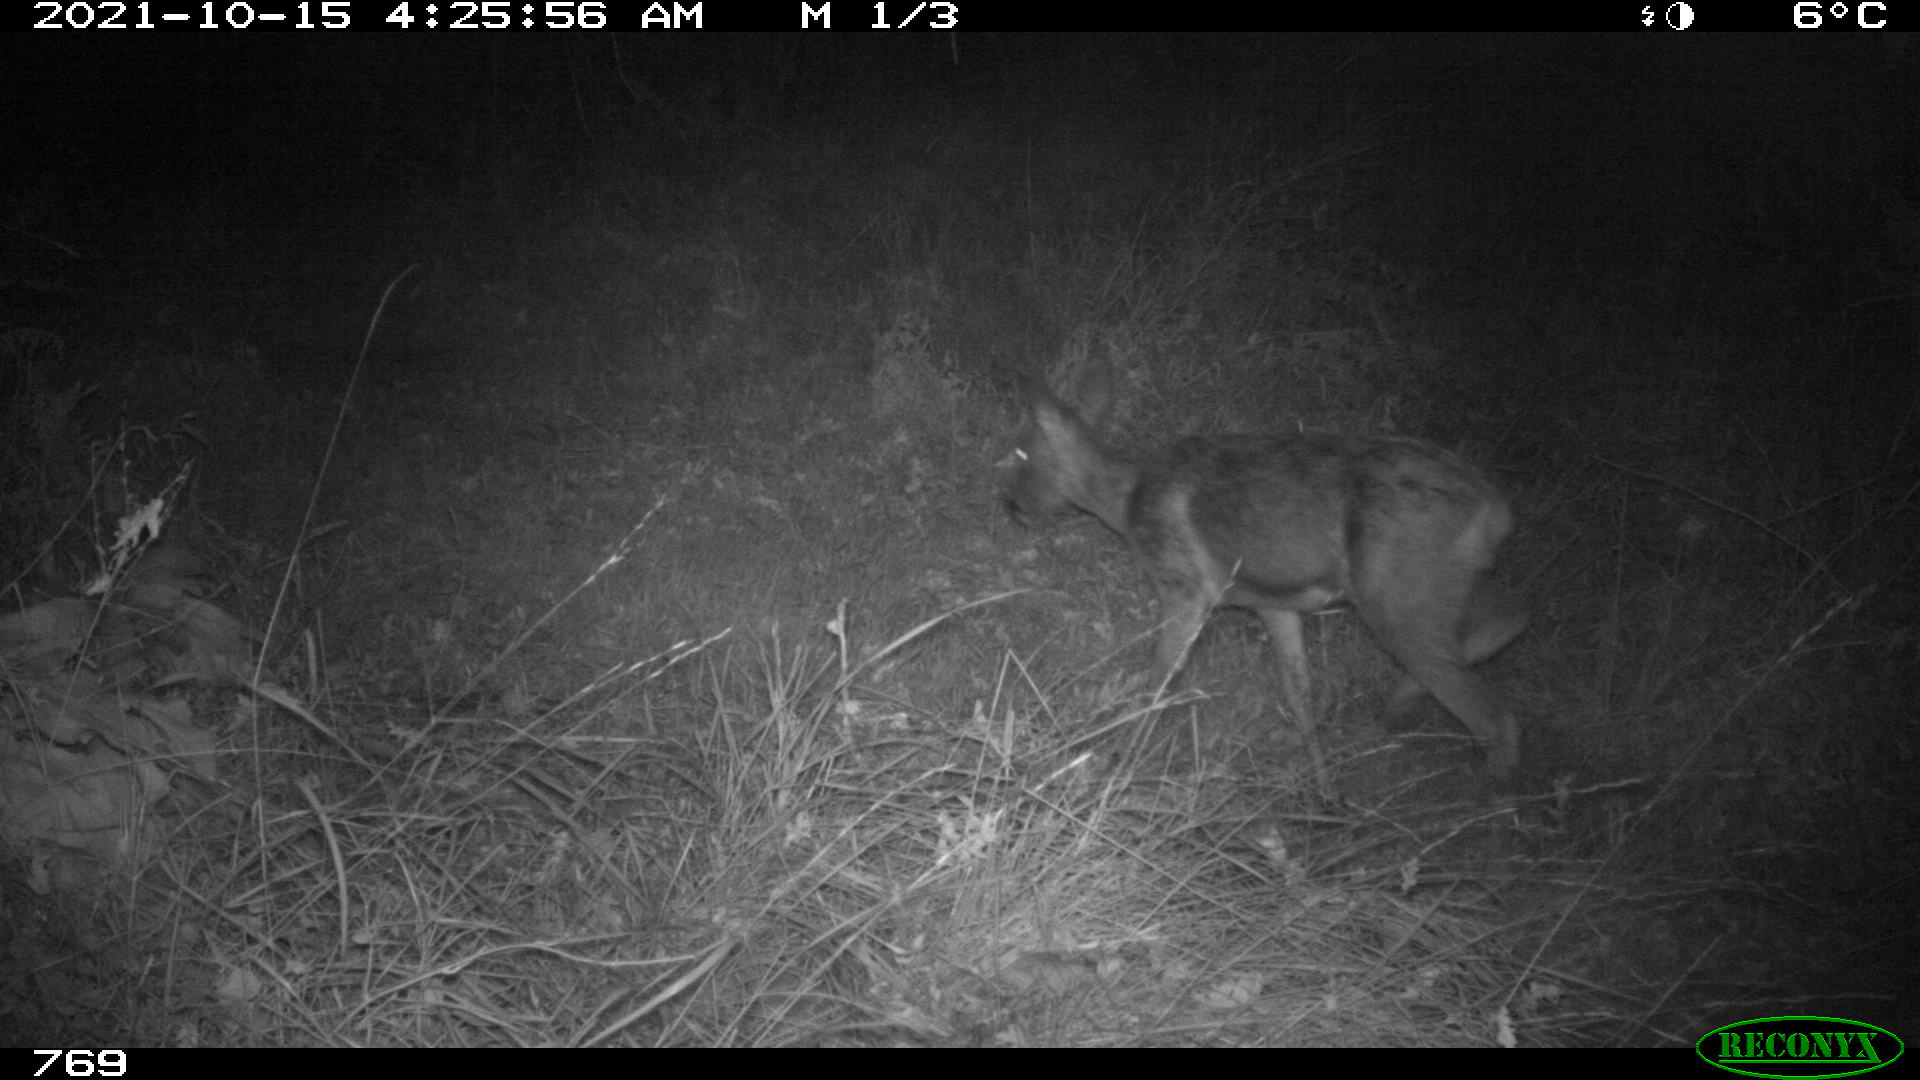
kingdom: Animalia
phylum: Chordata
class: Mammalia
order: Artiodactyla
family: Cervidae
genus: Capreolus
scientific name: Capreolus capreolus
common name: Western roe deer
